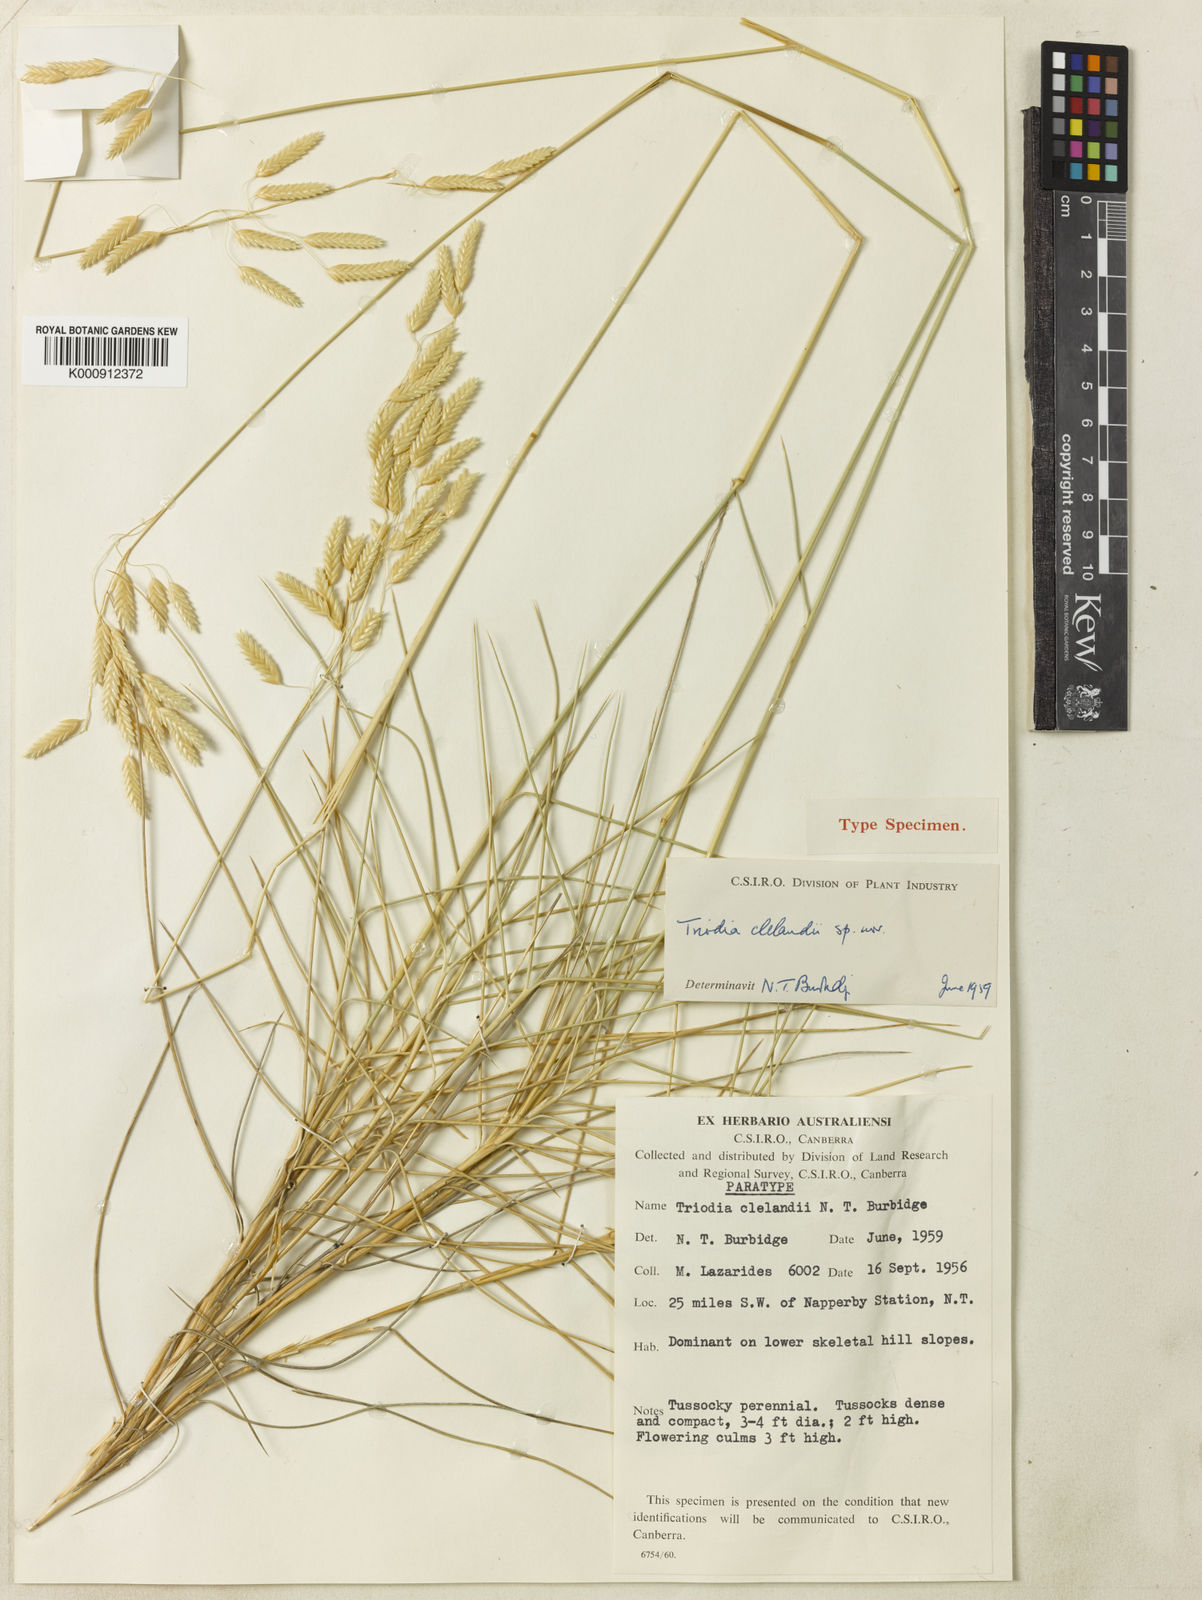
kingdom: Plantae
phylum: Tracheophyta
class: Liliopsida
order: Poales
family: Poaceae
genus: Triodia
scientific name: Triodia brizoides
